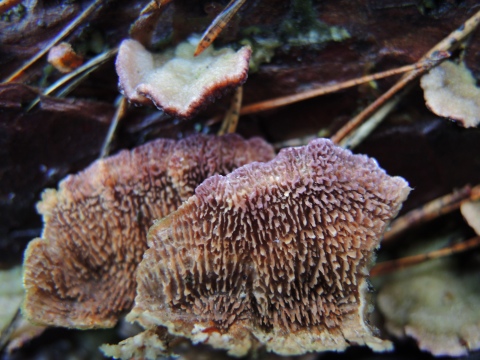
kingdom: Fungi
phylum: Basidiomycota
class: Agaricomycetes
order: Hymenochaetales
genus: Trichaptum
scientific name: Trichaptum fuscoviolaceum
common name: tandet violporesvamp
